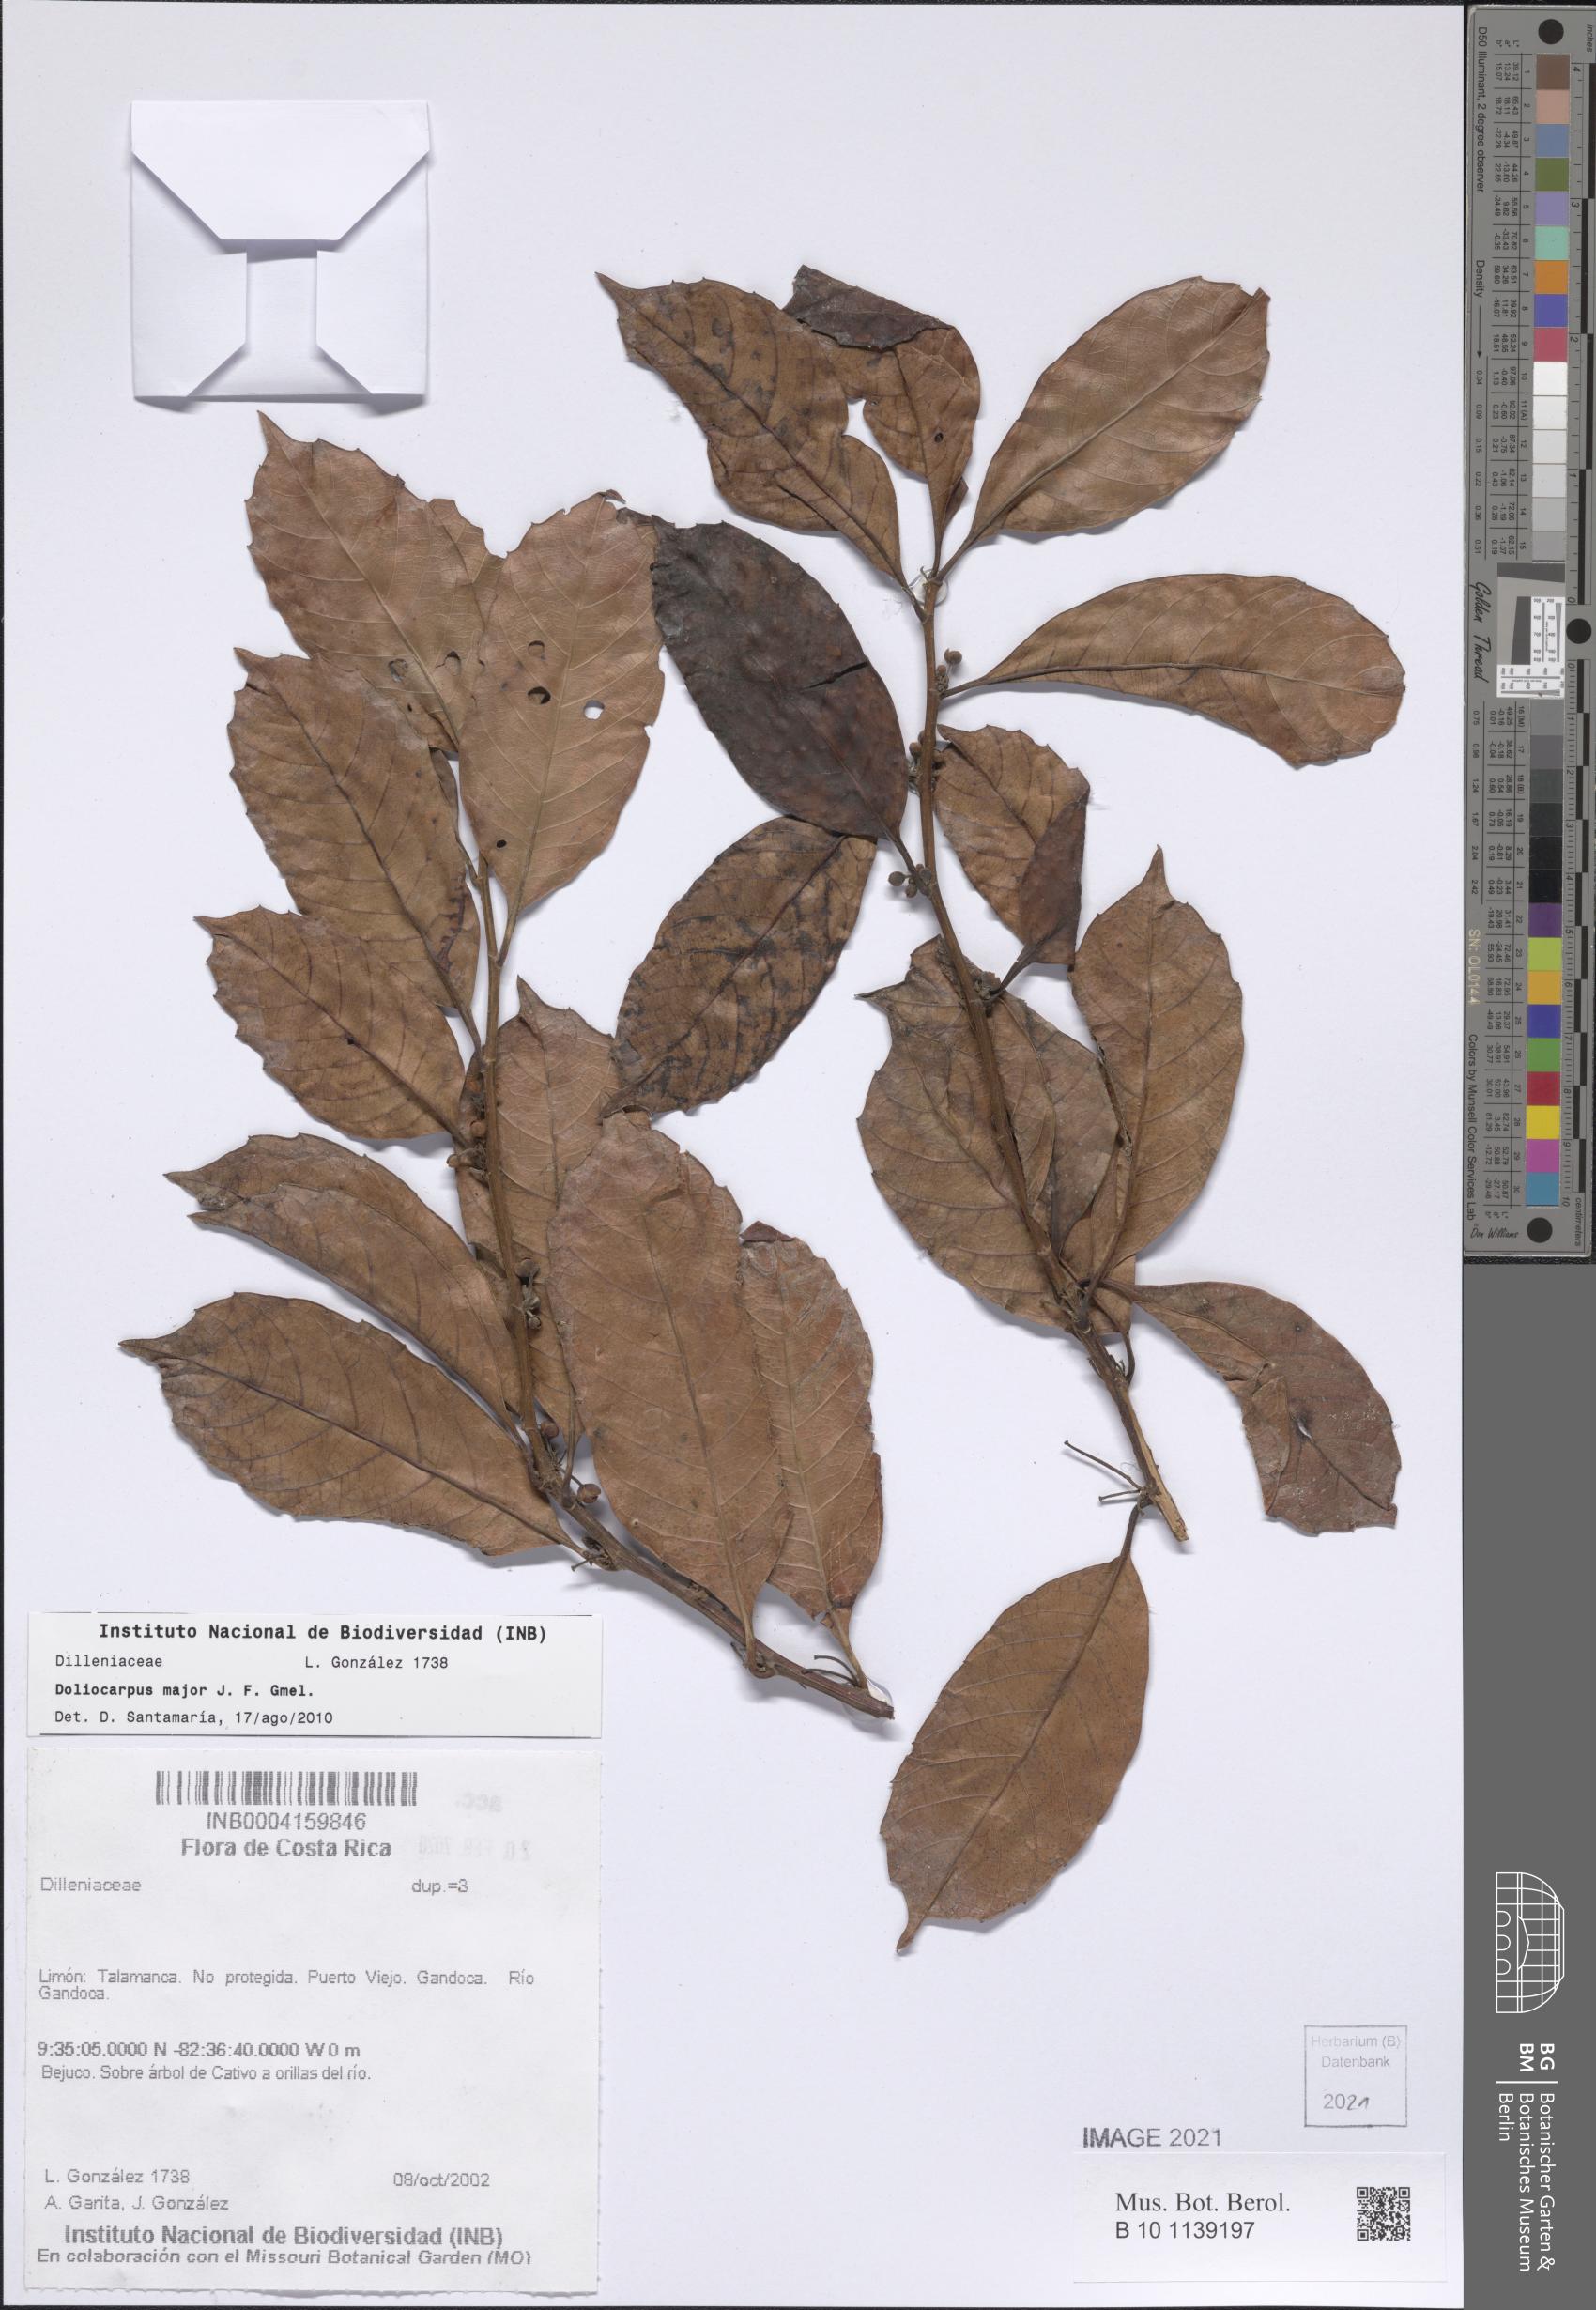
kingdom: Plantae
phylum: Tracheophyta
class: Magnoliopsida
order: Dilleniales
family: Dilleniaceae
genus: Doliocarpus
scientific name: Doliocarpus major
